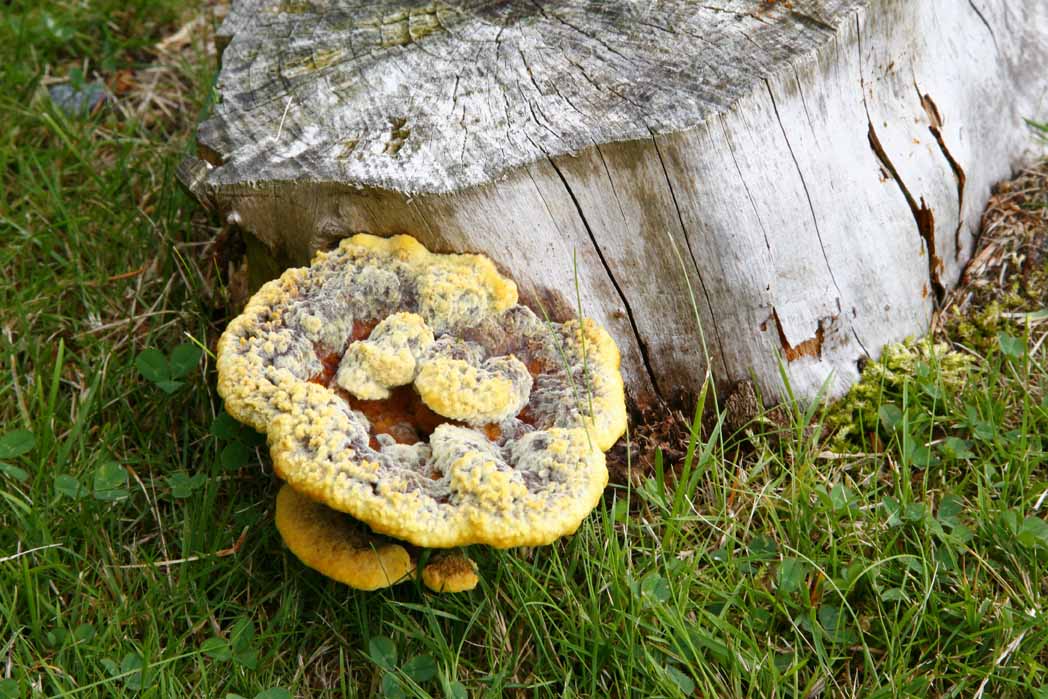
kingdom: Fungi
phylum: Basidiomycota
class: Agaricomycetes
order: Polyporales
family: Laetiporaceae
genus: Phaeolus
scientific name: Phaeolus schweinitzii
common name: brunporesvamp
